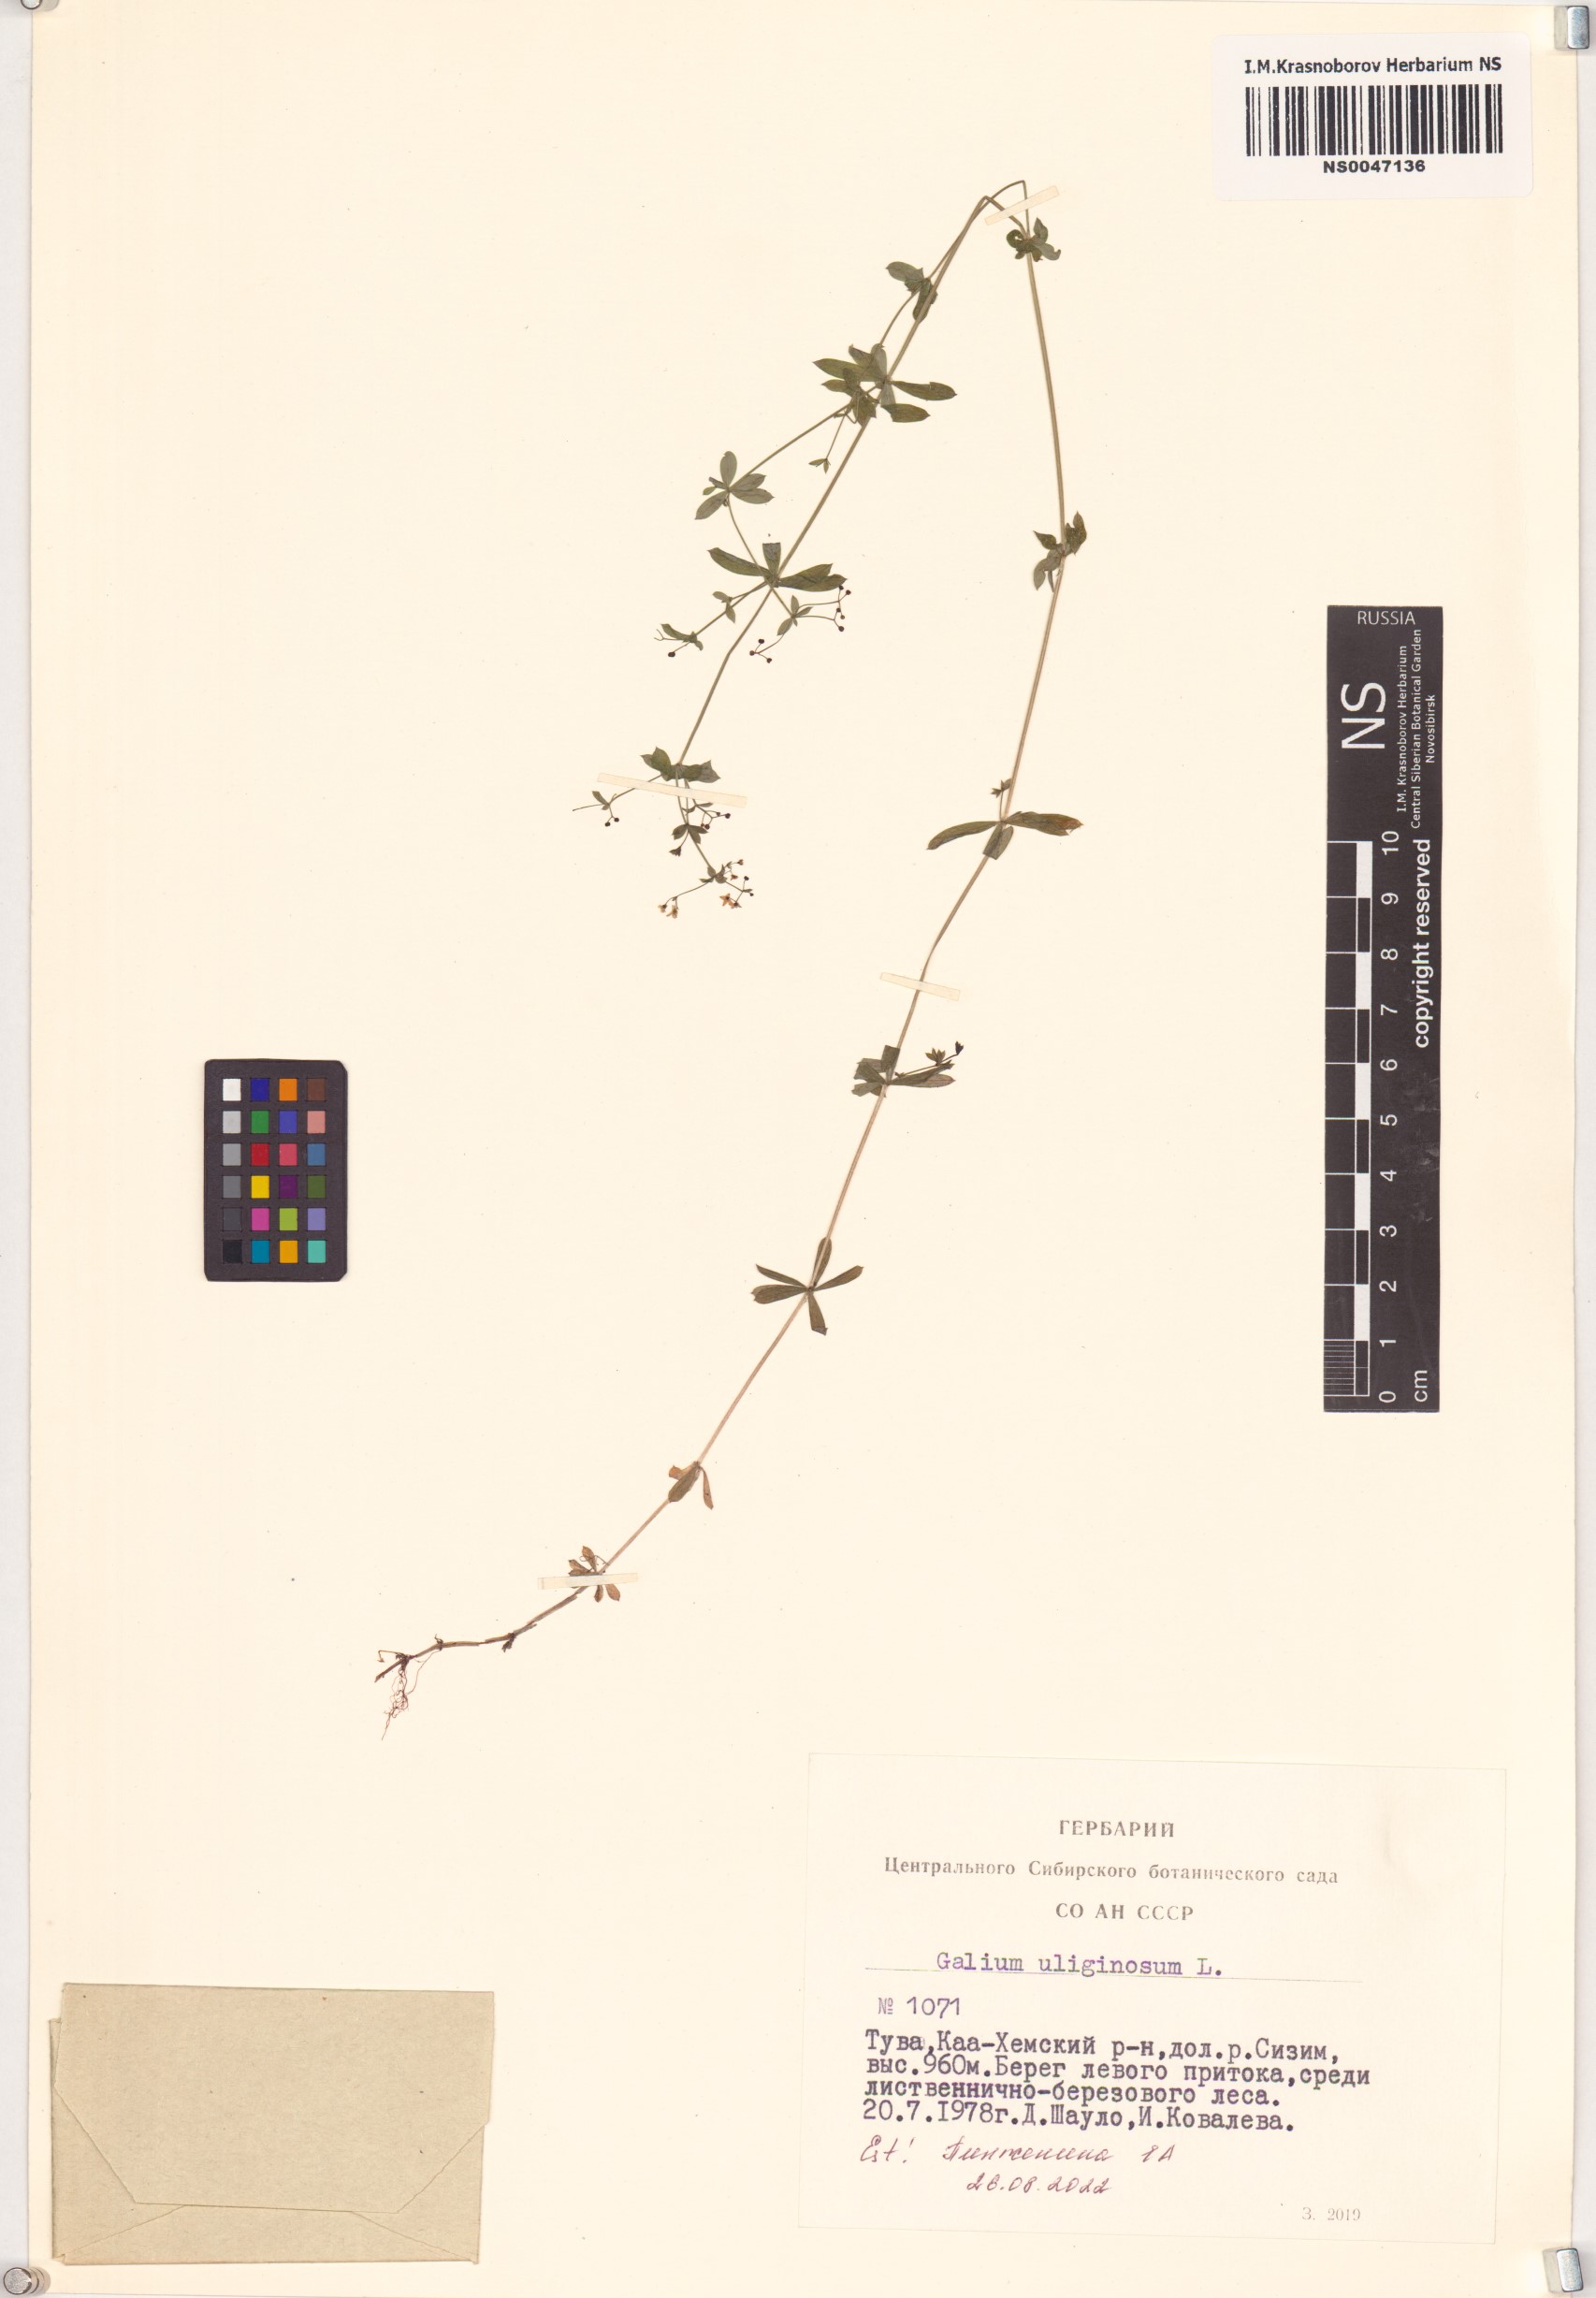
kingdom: Plantae
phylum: Tracheophyta
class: Magnoliopsida
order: Gentianales
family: Rubiaceae
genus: Galium
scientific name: Galium uliginosum
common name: Fen bedstraw
